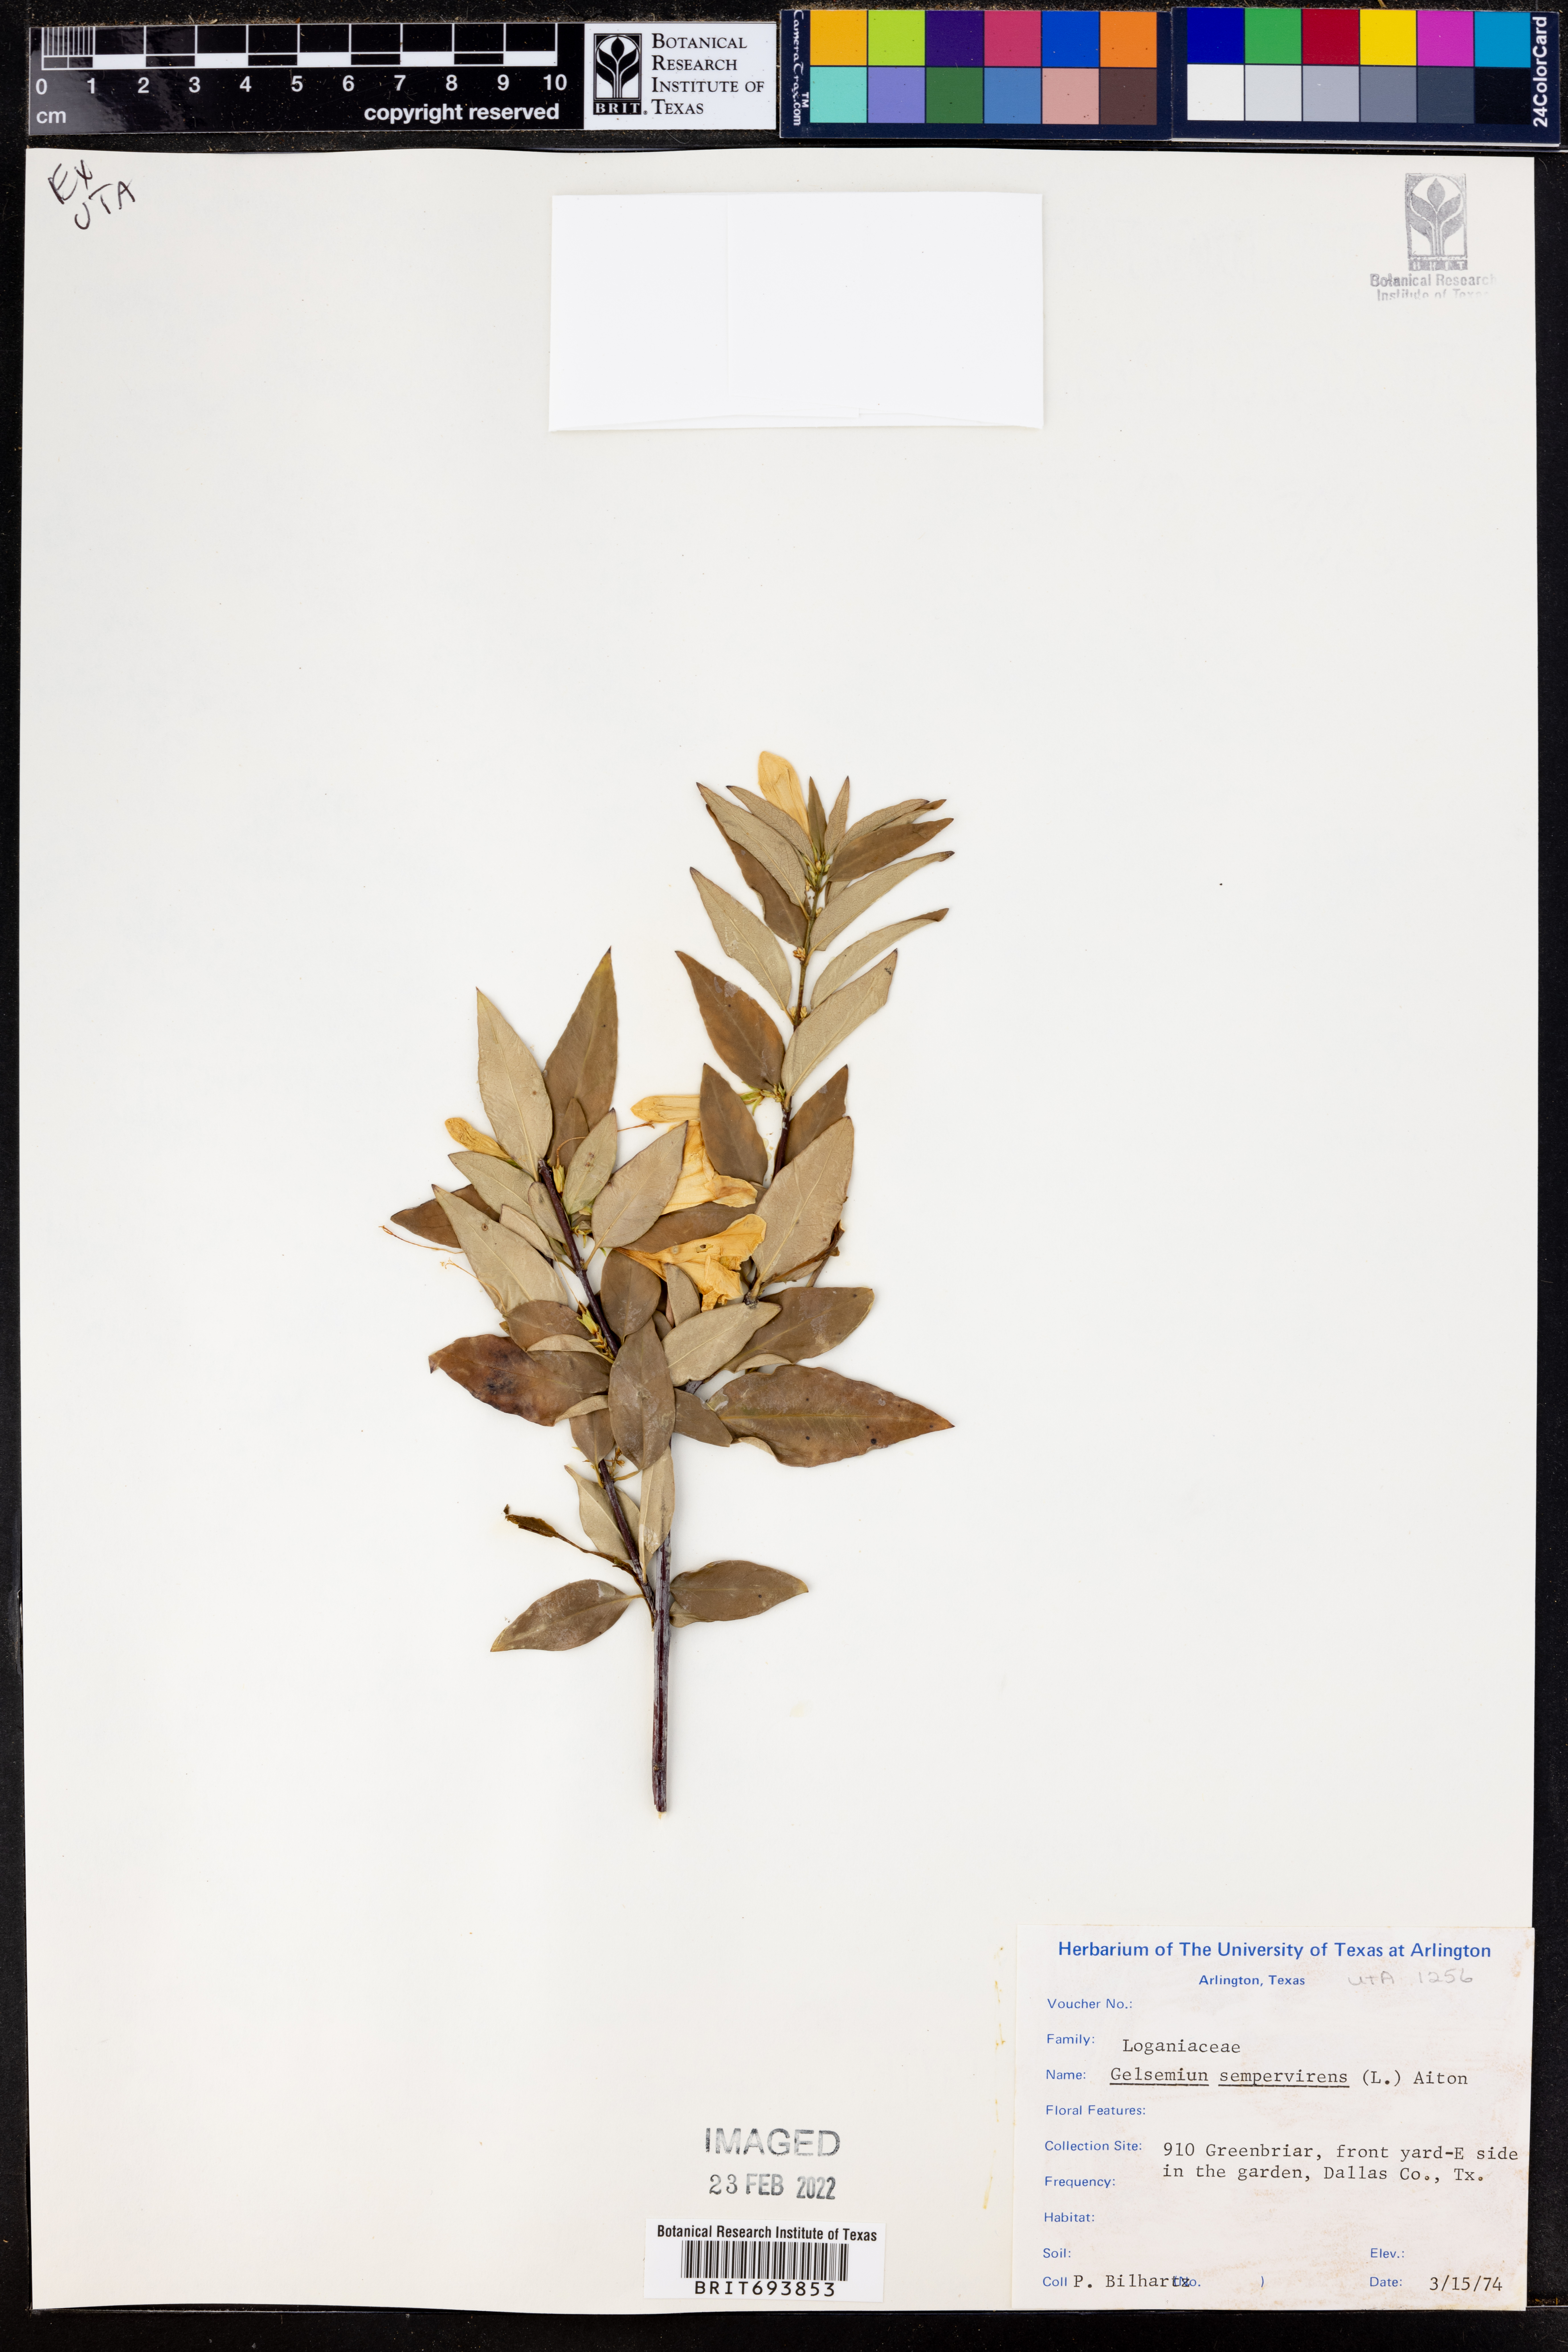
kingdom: Plantae
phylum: Tracheophyta
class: Magnoliopsida
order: Gentianales
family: Gelsemiaceae
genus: Gelsemium
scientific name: Gelsemium sempervirens
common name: Carolina-jasmine
